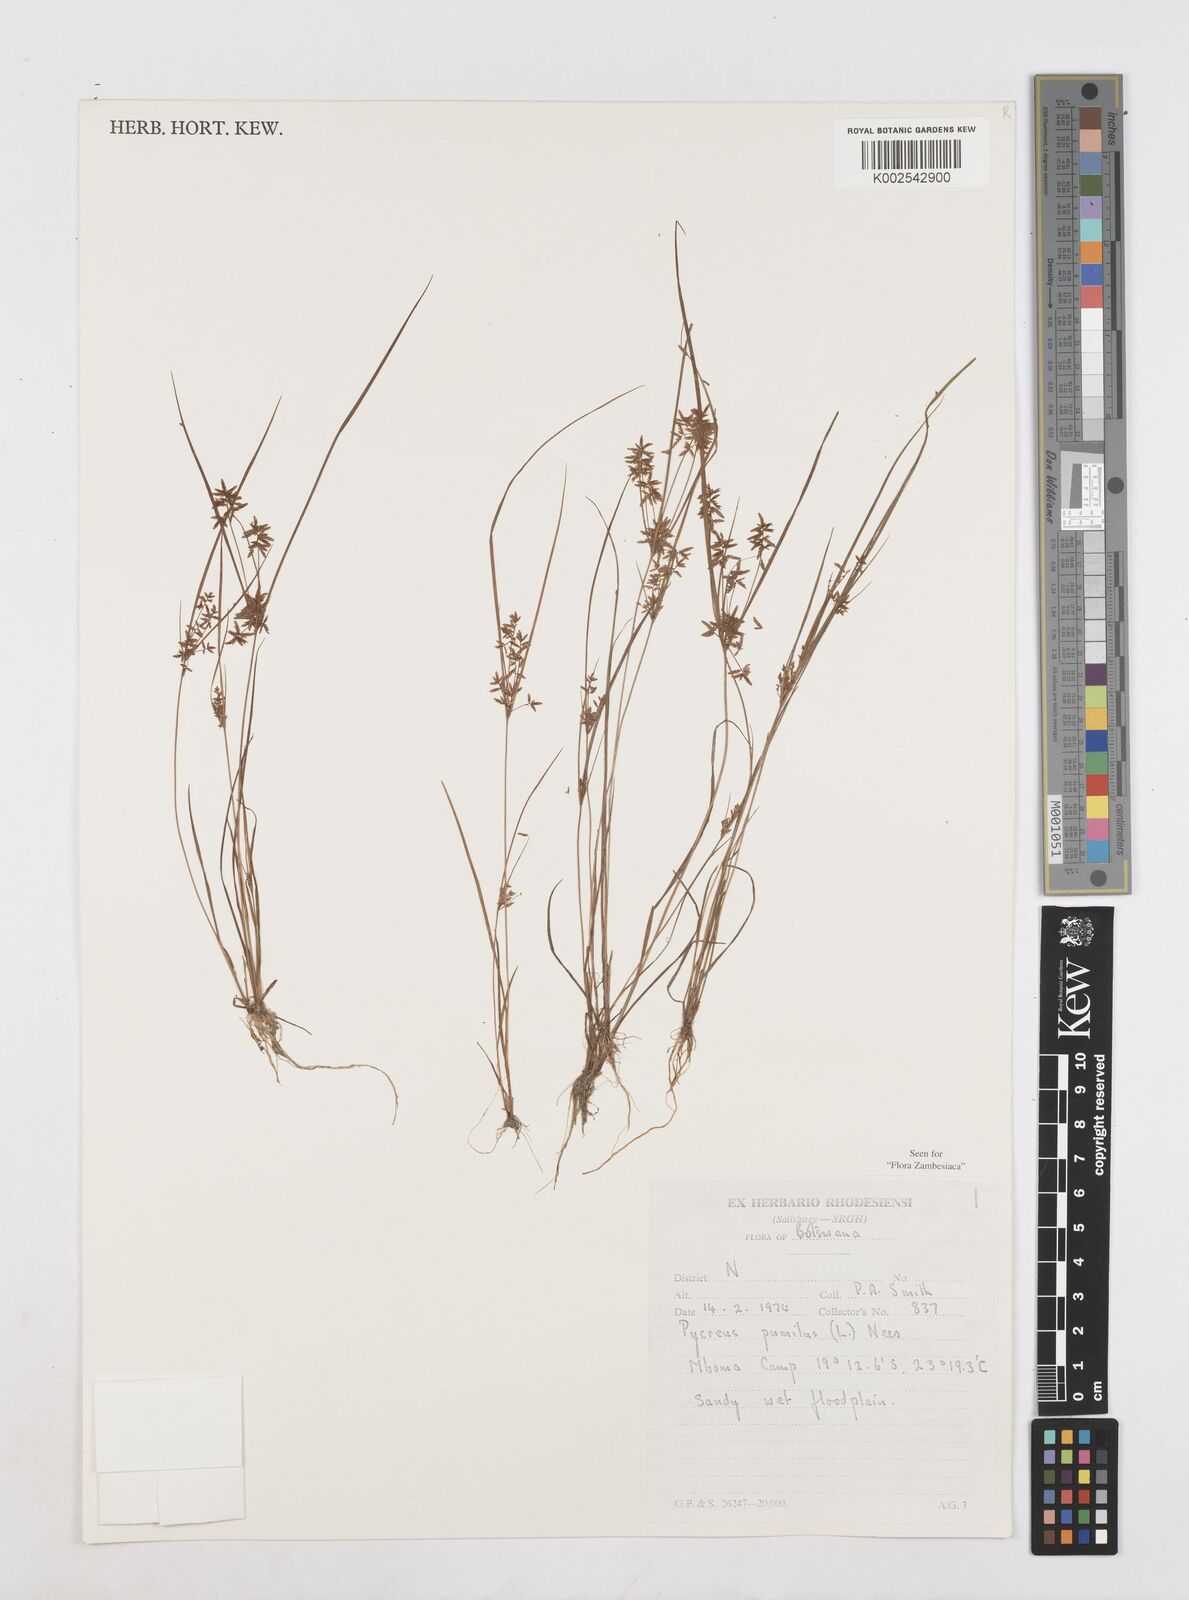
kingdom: Plantae
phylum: Tracheophyta
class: Liliopsida
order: Poales
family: Cyperaceae
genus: Cyperus
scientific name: Cyperus pumilus
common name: Low flatsedge
